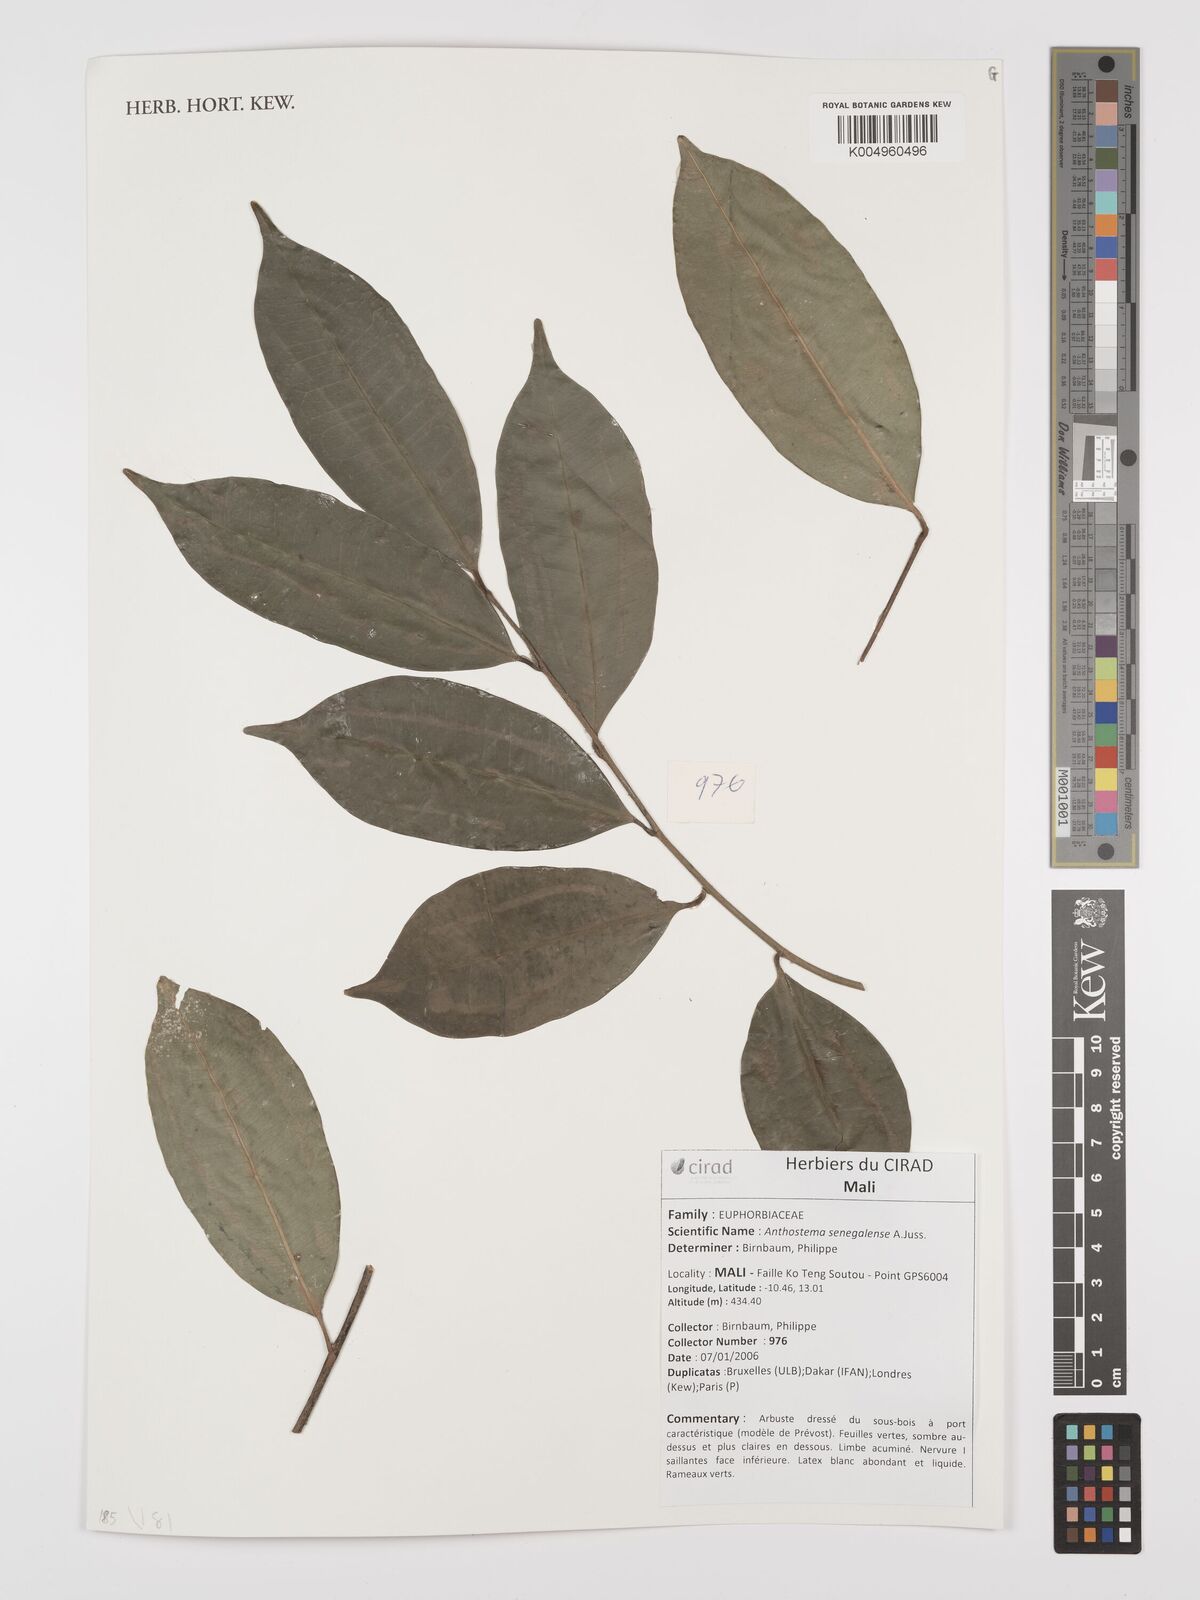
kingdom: Plantae
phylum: Tracheophyta
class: Magnoliopsida
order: Malpighiales
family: Euphorbiaceae
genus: Anthostema
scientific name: Anthostema senegalense
